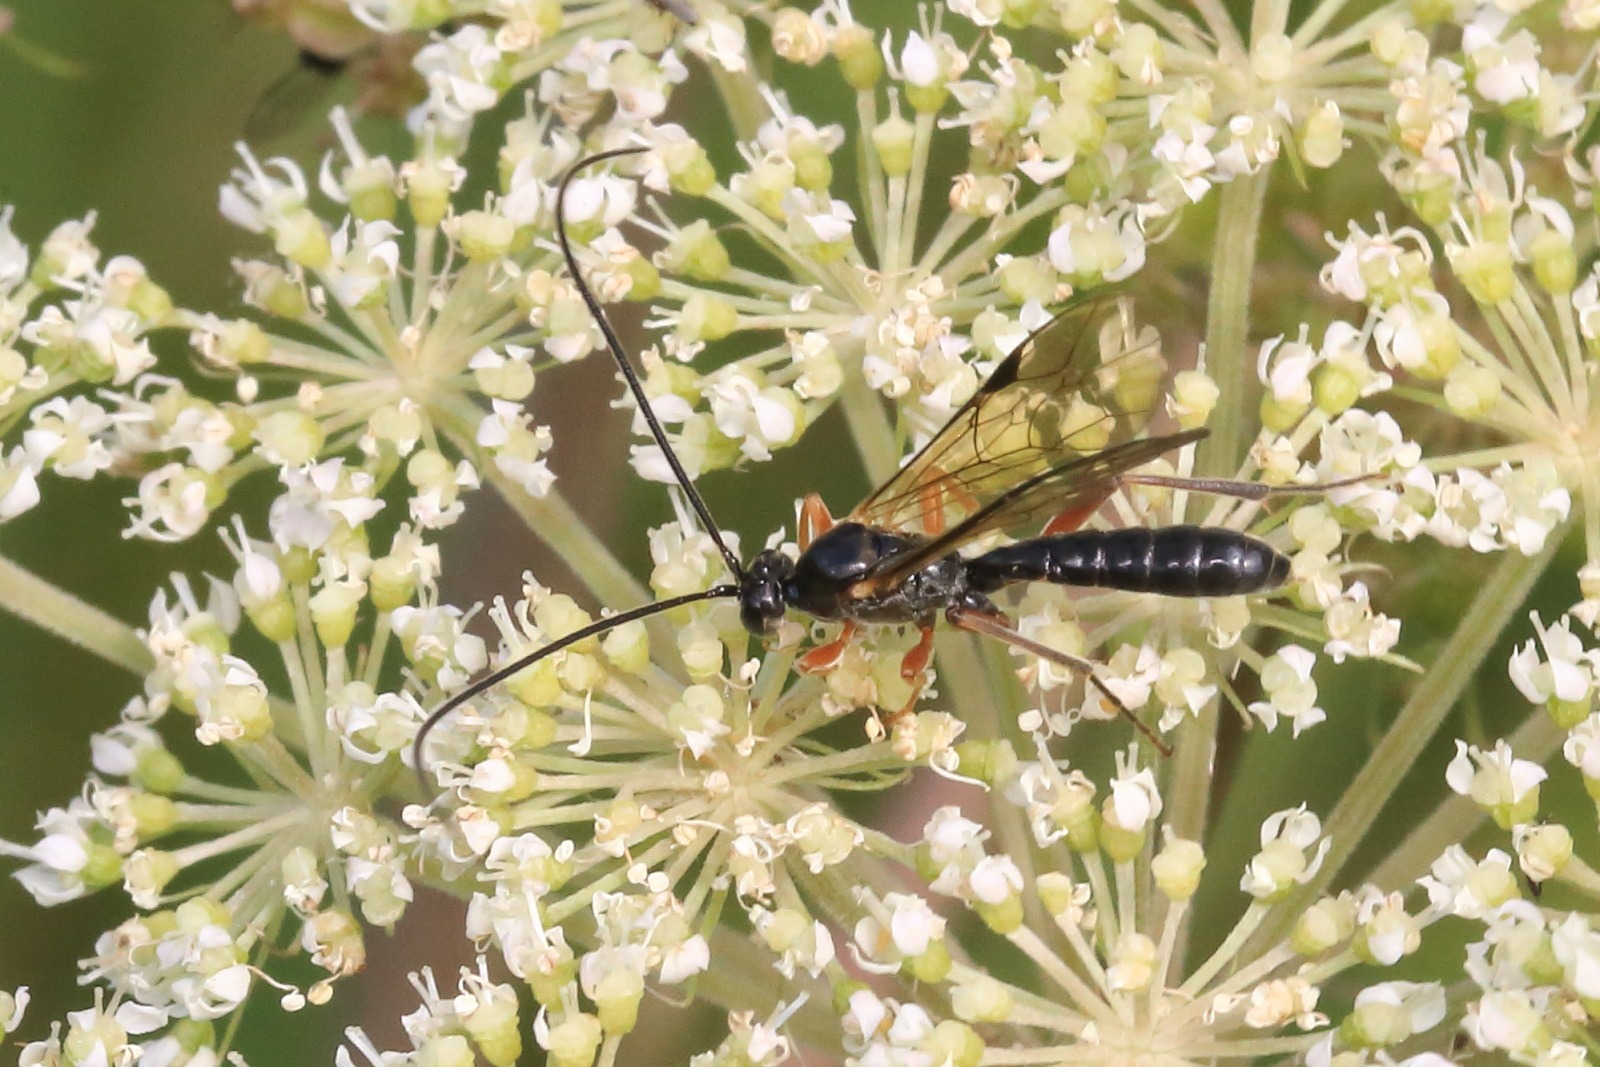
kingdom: Animalia
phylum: Arthropoda
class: Insecta
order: Hymenoptera
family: Ichneumonidae
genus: Dyspetes
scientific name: Dyspetes luteomarginatus
